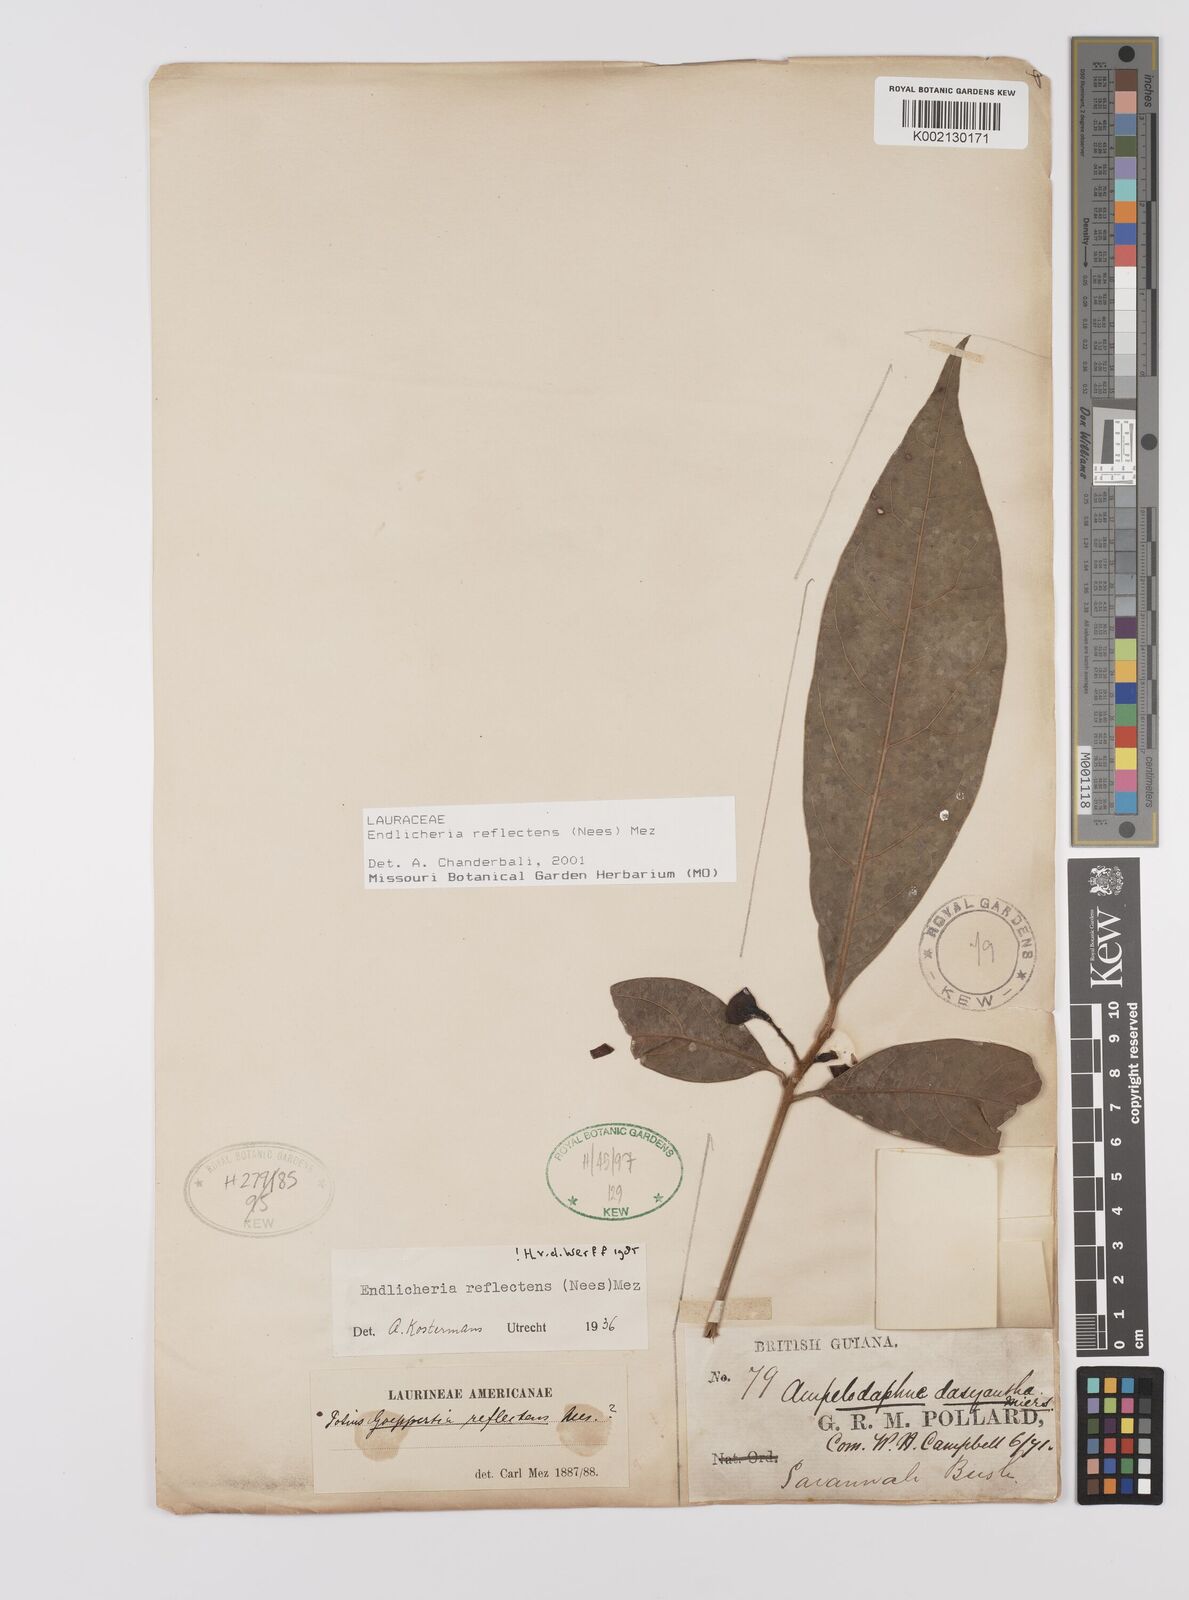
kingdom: Plantae
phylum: Tracheophyta
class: Magnoliopsida
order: Laurales
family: Lauraceae
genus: Endlicheria
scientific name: Endlicheria reflectens
